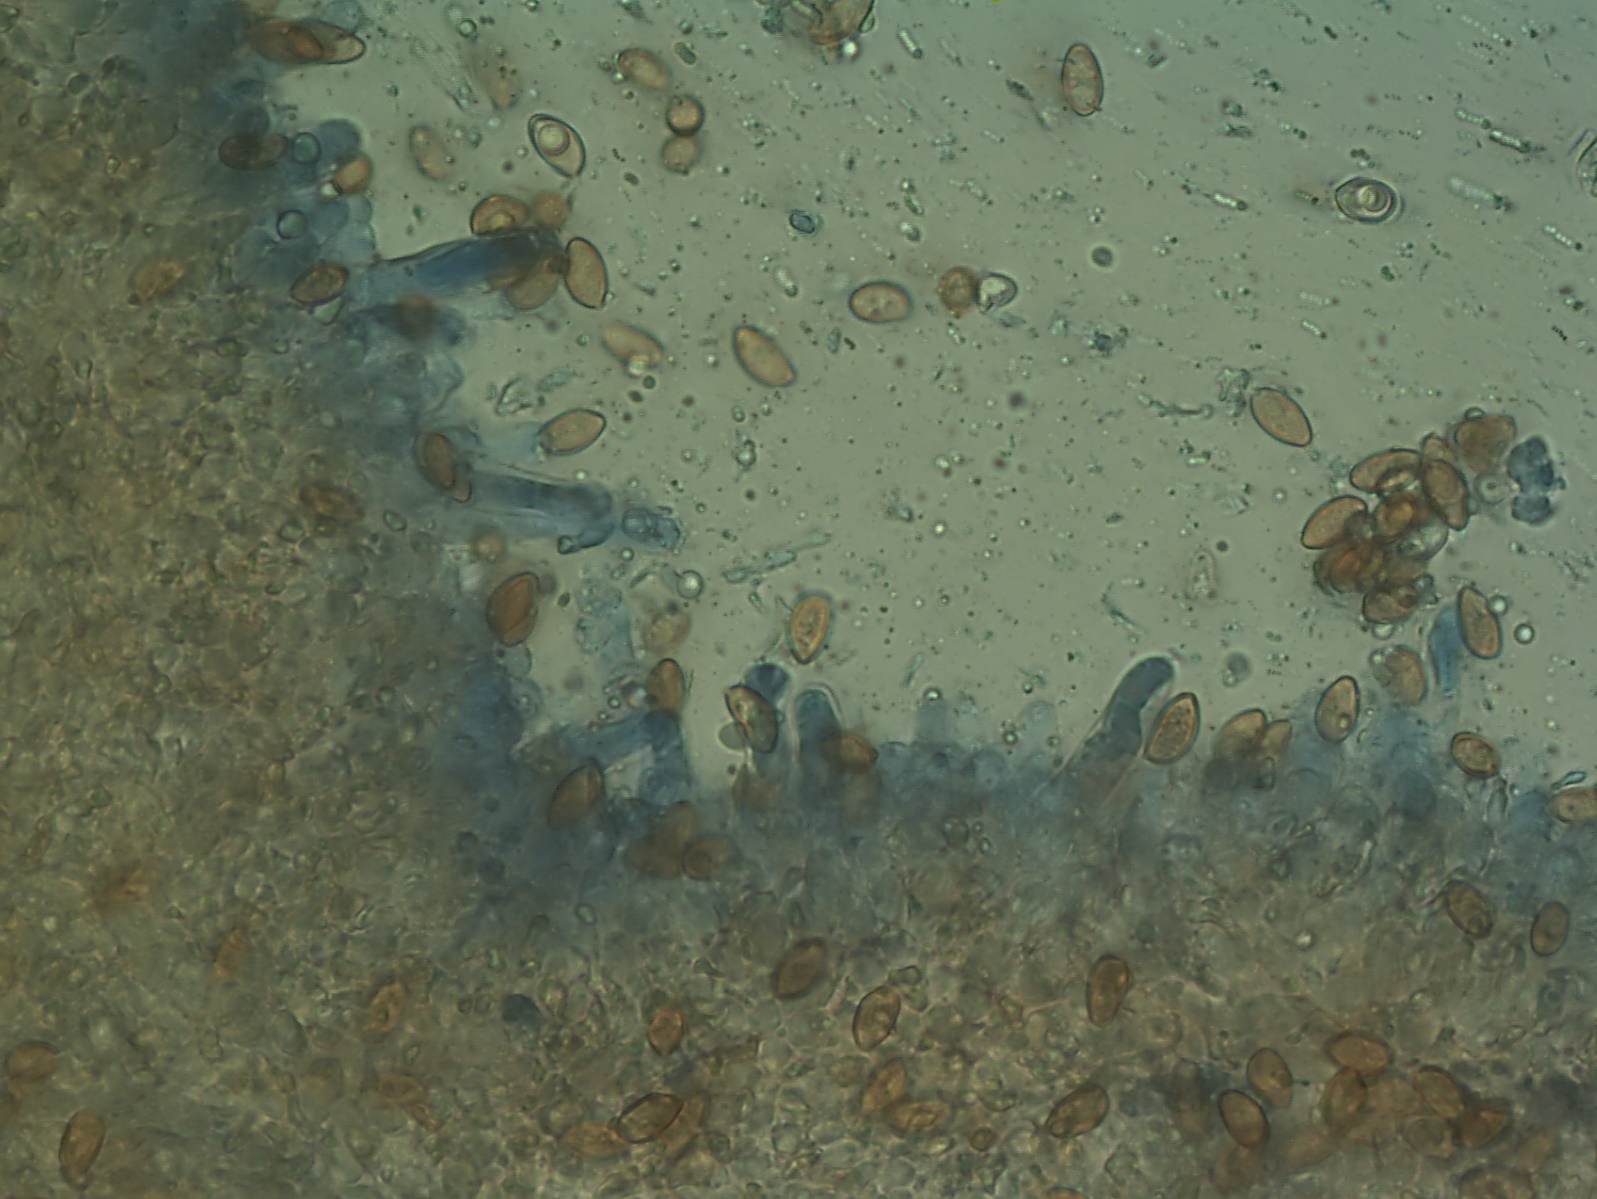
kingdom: Fungi
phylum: Basidiomycota
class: Agaricomycetes
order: Agaricales
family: Tubariaceae
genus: Cyclocybe
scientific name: Cyclocybe erebia
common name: mørk agerhat
